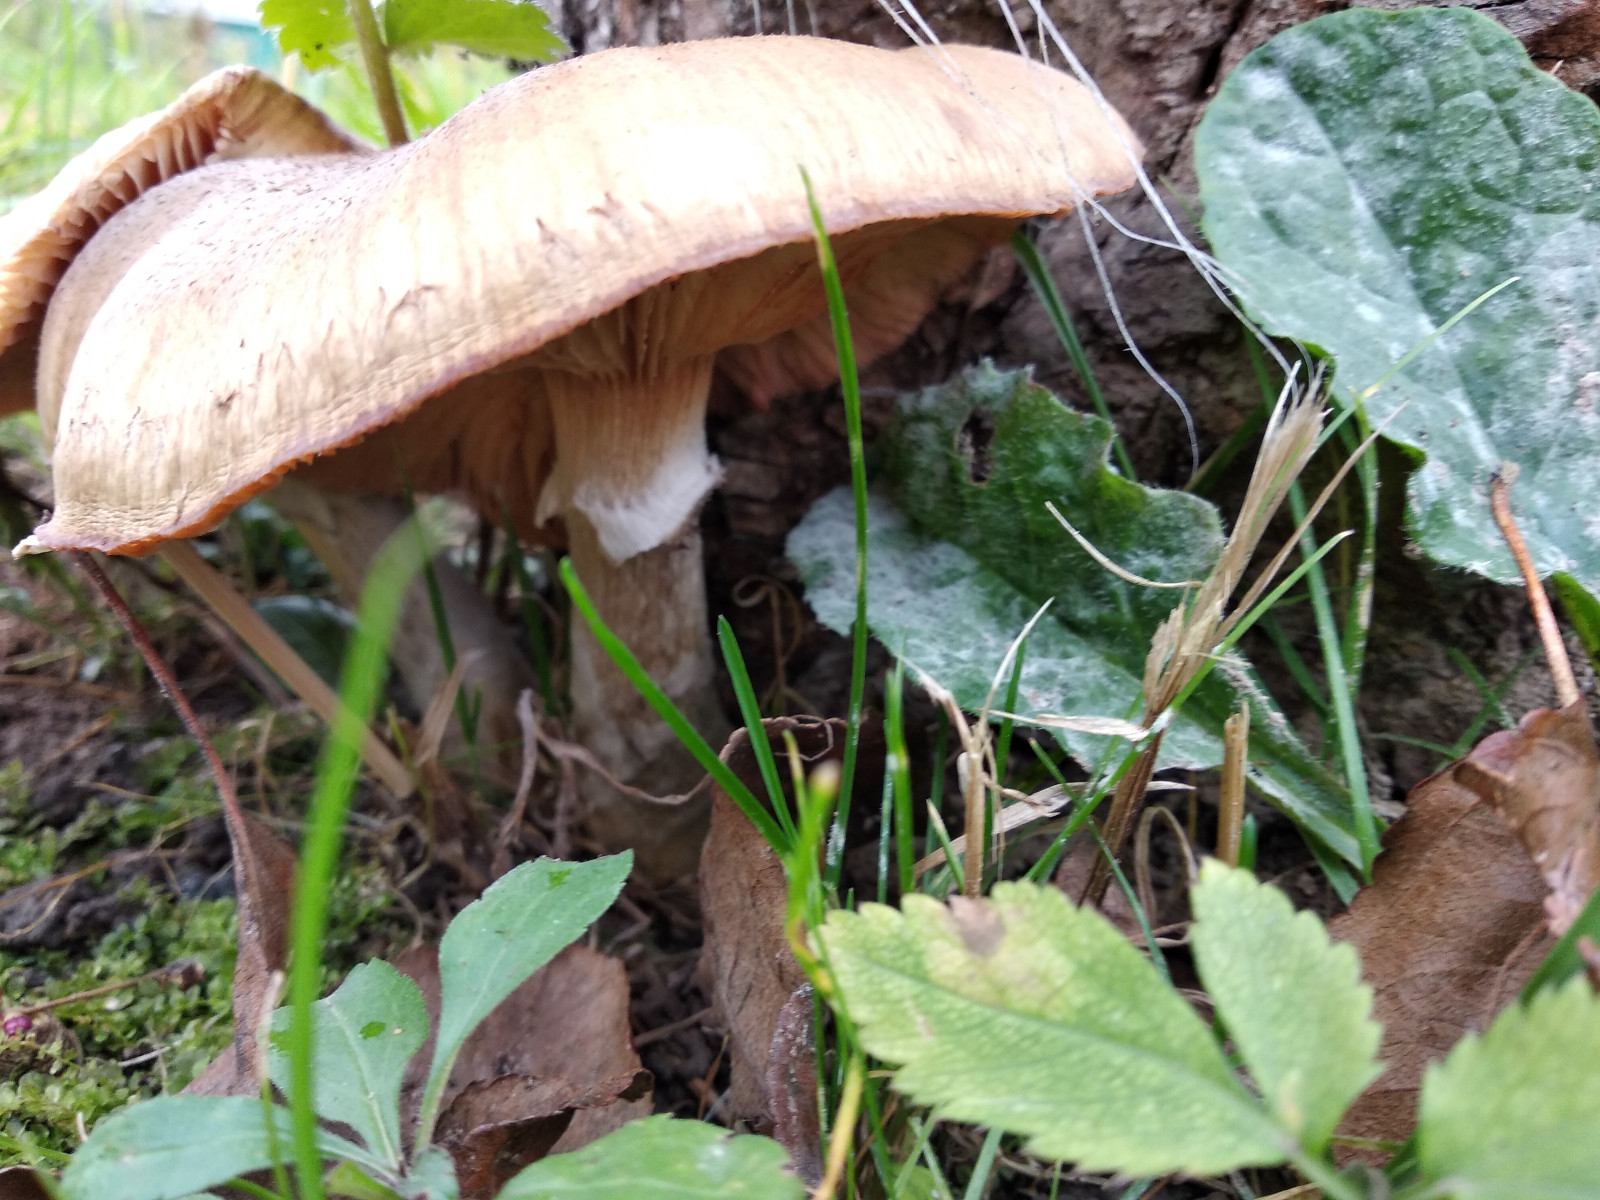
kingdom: Fungi
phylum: Basidiomycota
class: Agaricomycetes
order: Agaricales
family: Physalacriaceae
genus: Armillaria
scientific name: Armillaria
